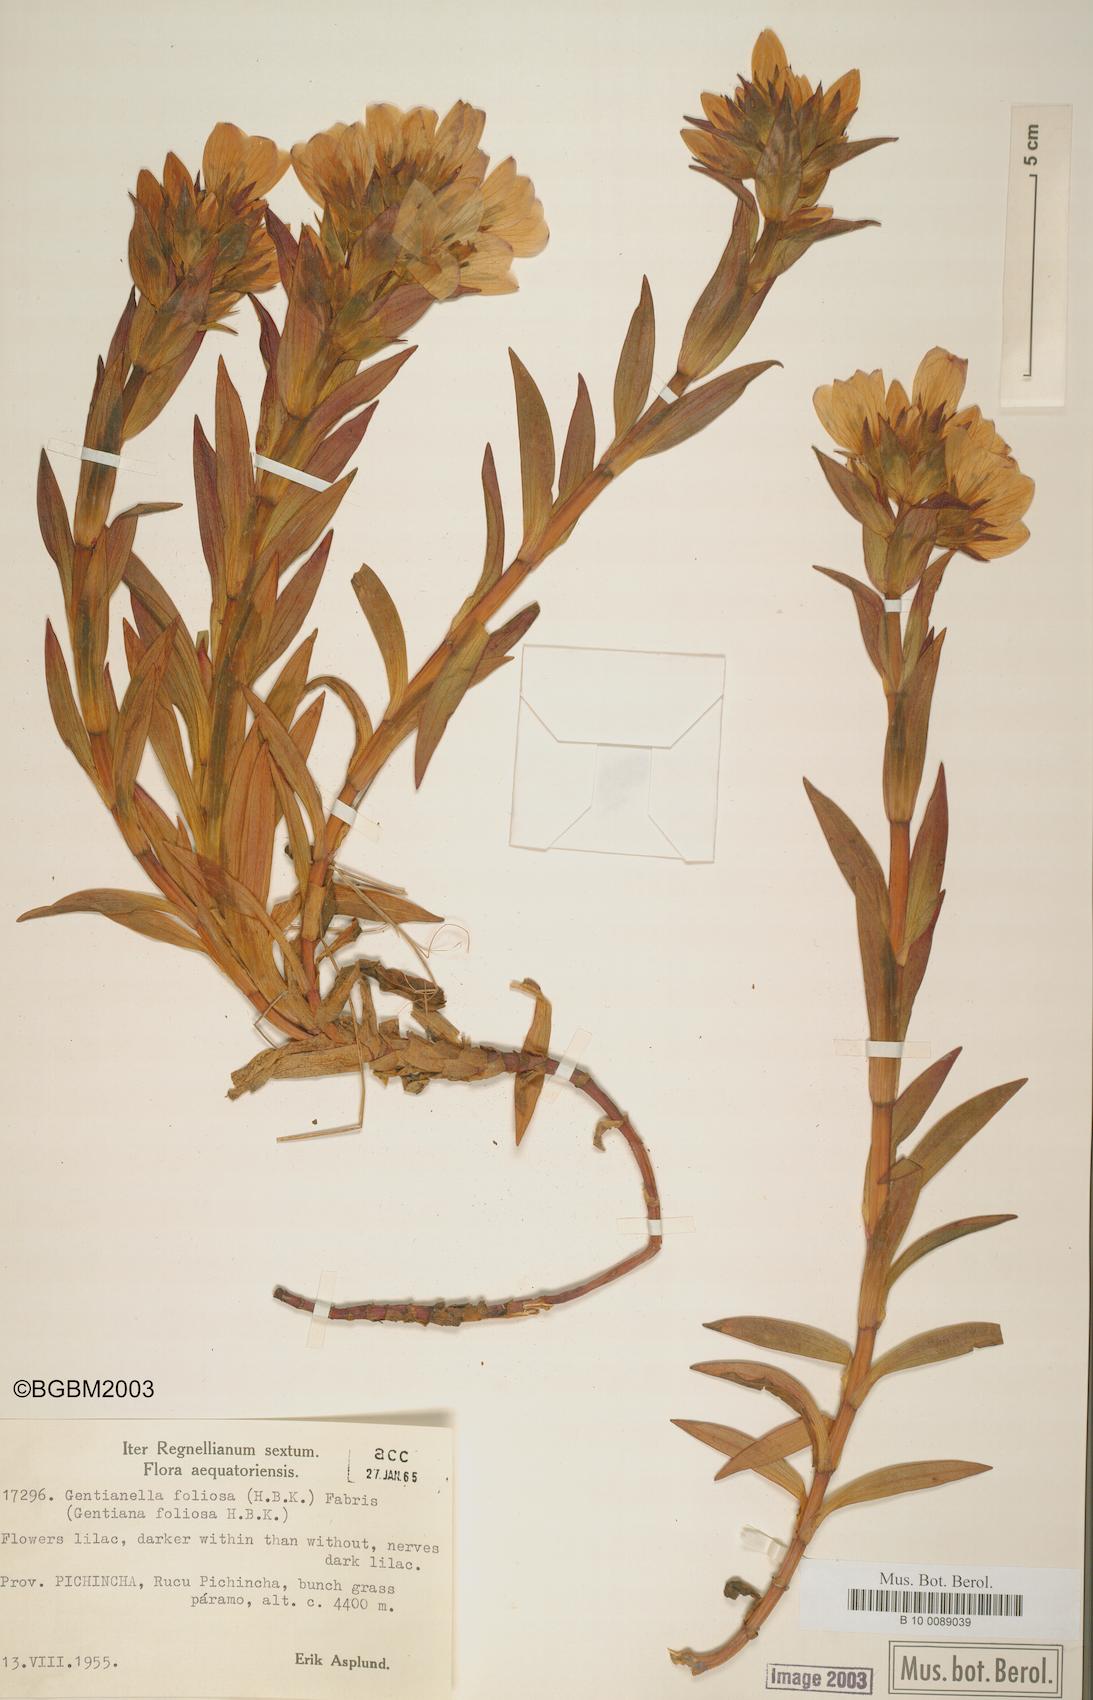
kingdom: Plantae
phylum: Tracheophyta
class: Magnoliopsida
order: Gentianales
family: Gentianaceae
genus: Gentianella
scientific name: Gentianella foliosa
